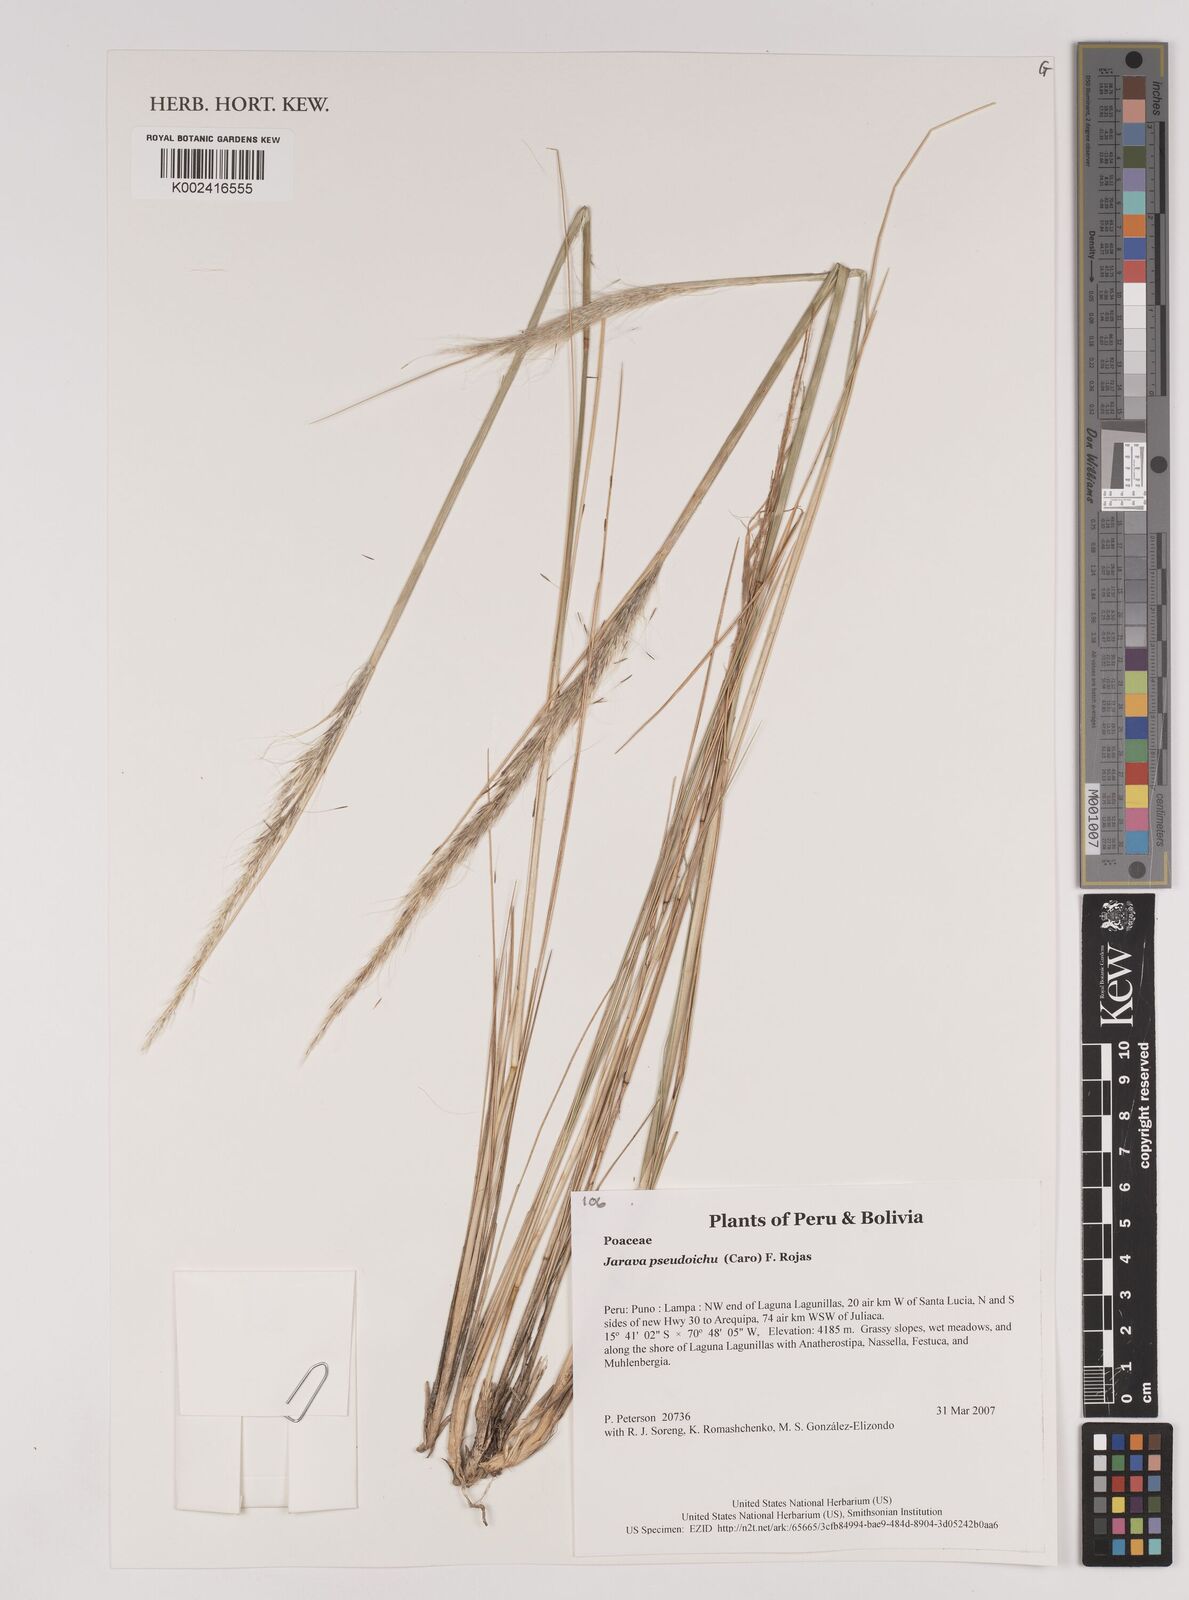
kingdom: Plantae
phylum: Tracheophyta
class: Liliopsida
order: Poales
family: Poaceae
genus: Jarava
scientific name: Jarava pseudoichu
